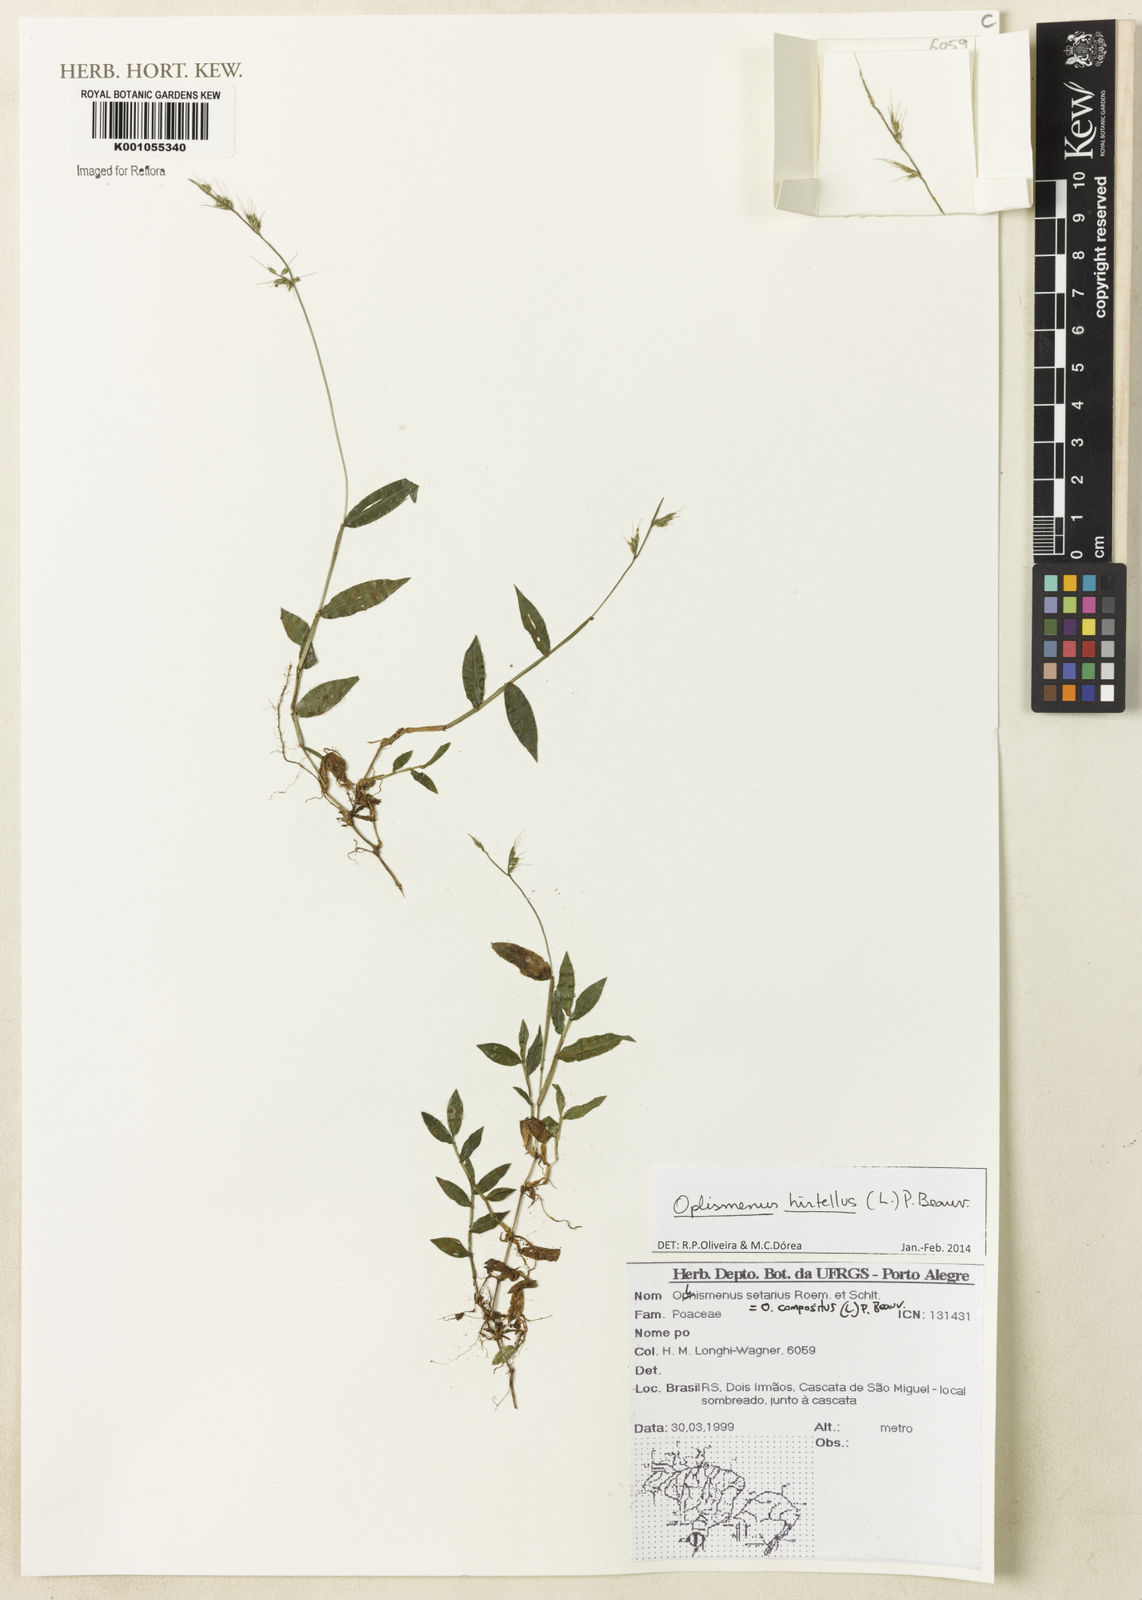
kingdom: Plantae
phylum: Tracheophyta
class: Liliopsida
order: Poales
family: Poaceae
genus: Oplismenus
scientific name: Oplismenus hirtellus
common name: Basketgrass
